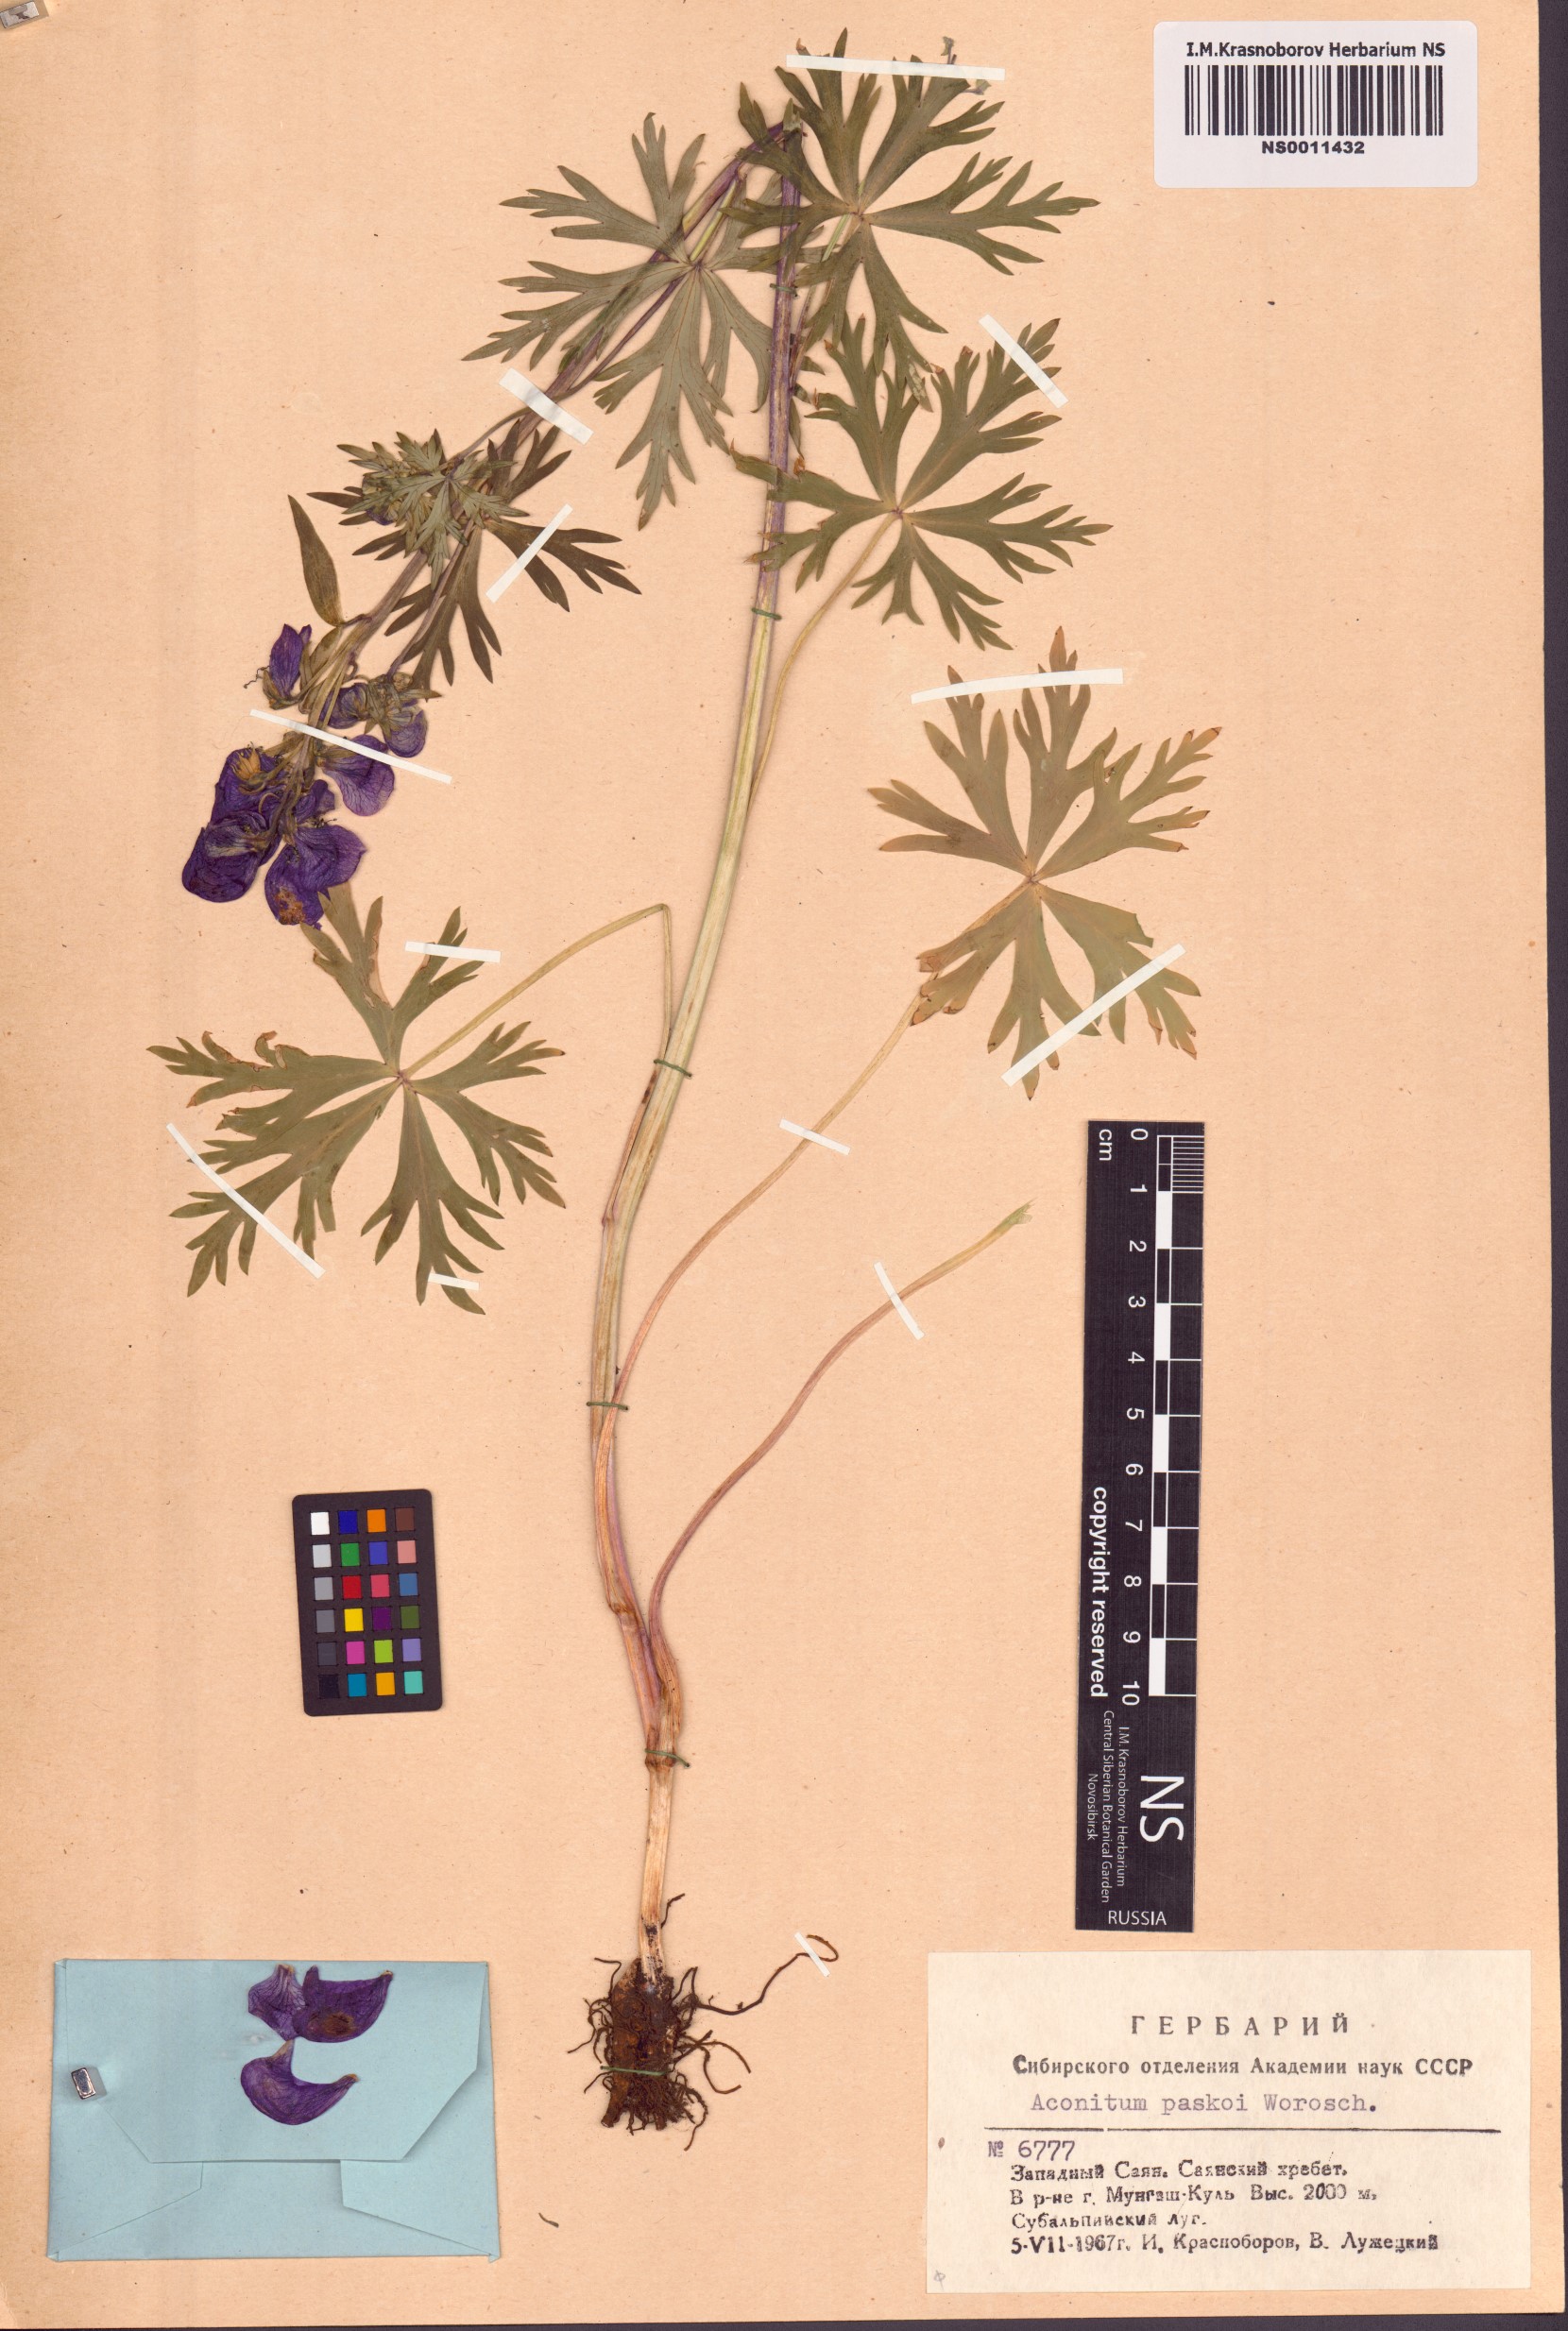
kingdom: Plantae
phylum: Tracheophyta
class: Magnoliopsida
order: Ranunculales
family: Ranunculaceae
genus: Aconitum
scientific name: Aconitum pascoi
